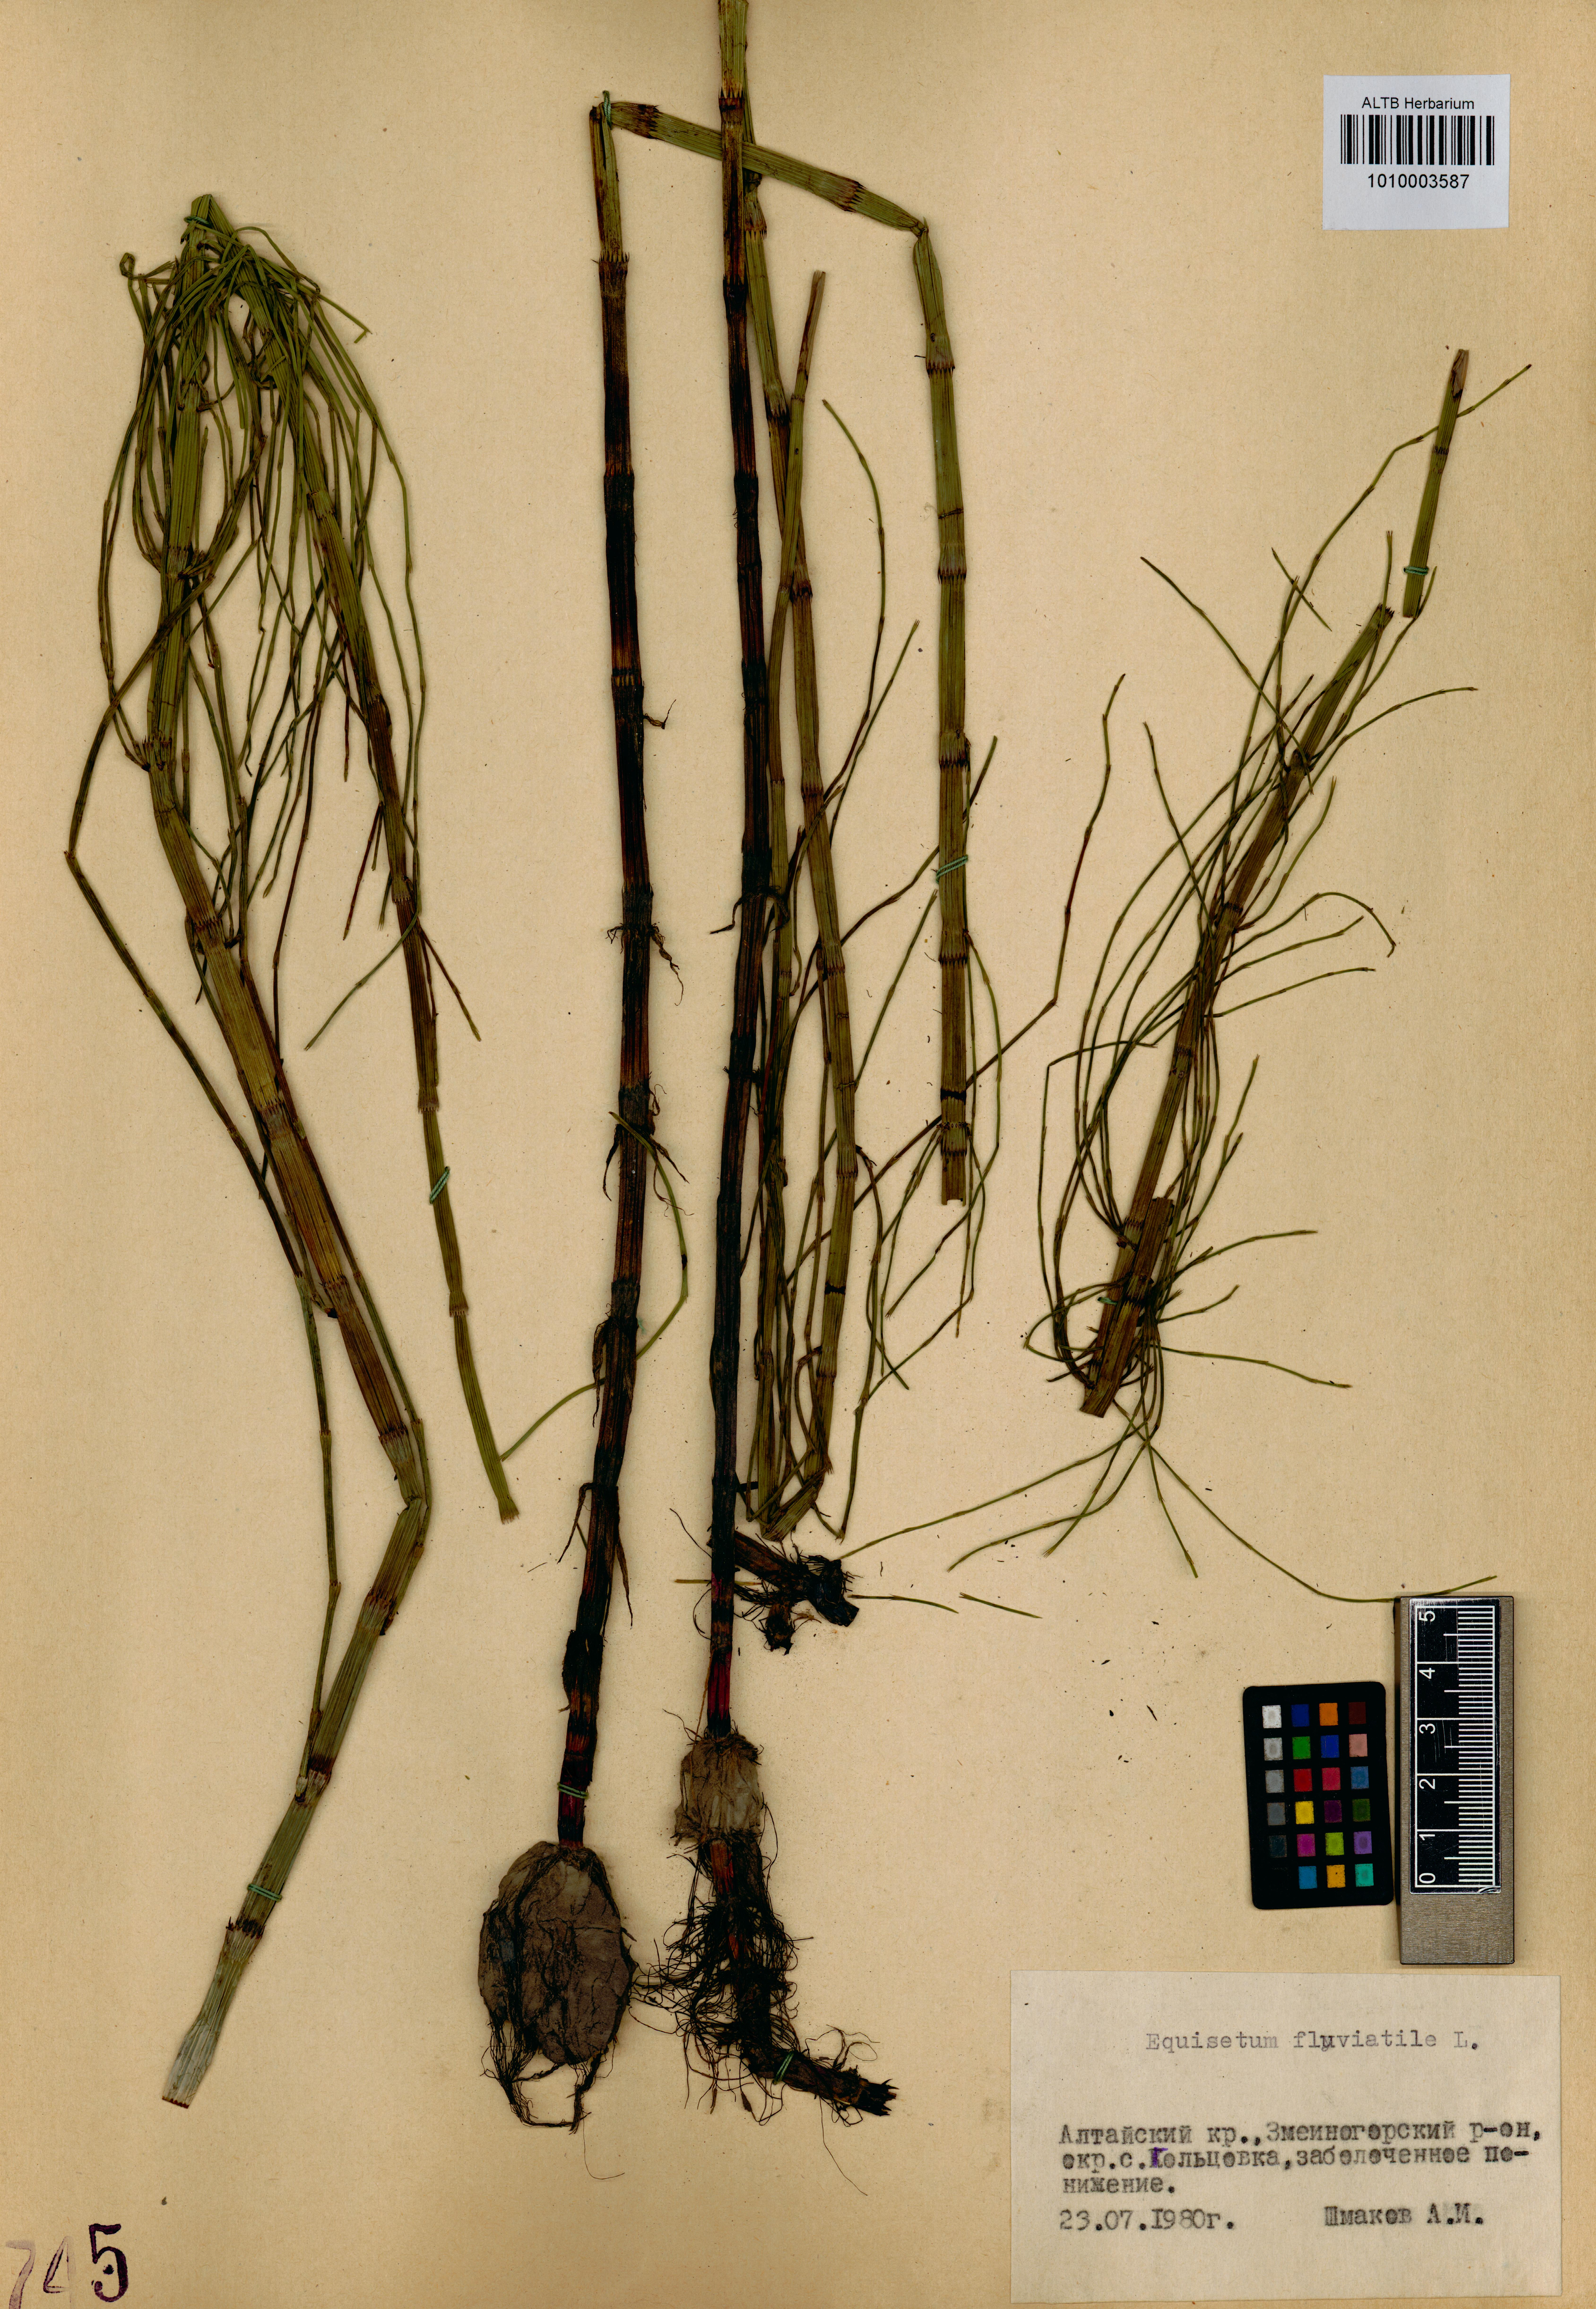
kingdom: Plantae
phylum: Tracheophyta
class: Polypodiopsida
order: Equisetales
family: Equisetaceae
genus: Equisetum
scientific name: Equisetum fluviatile
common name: Water horsetail
